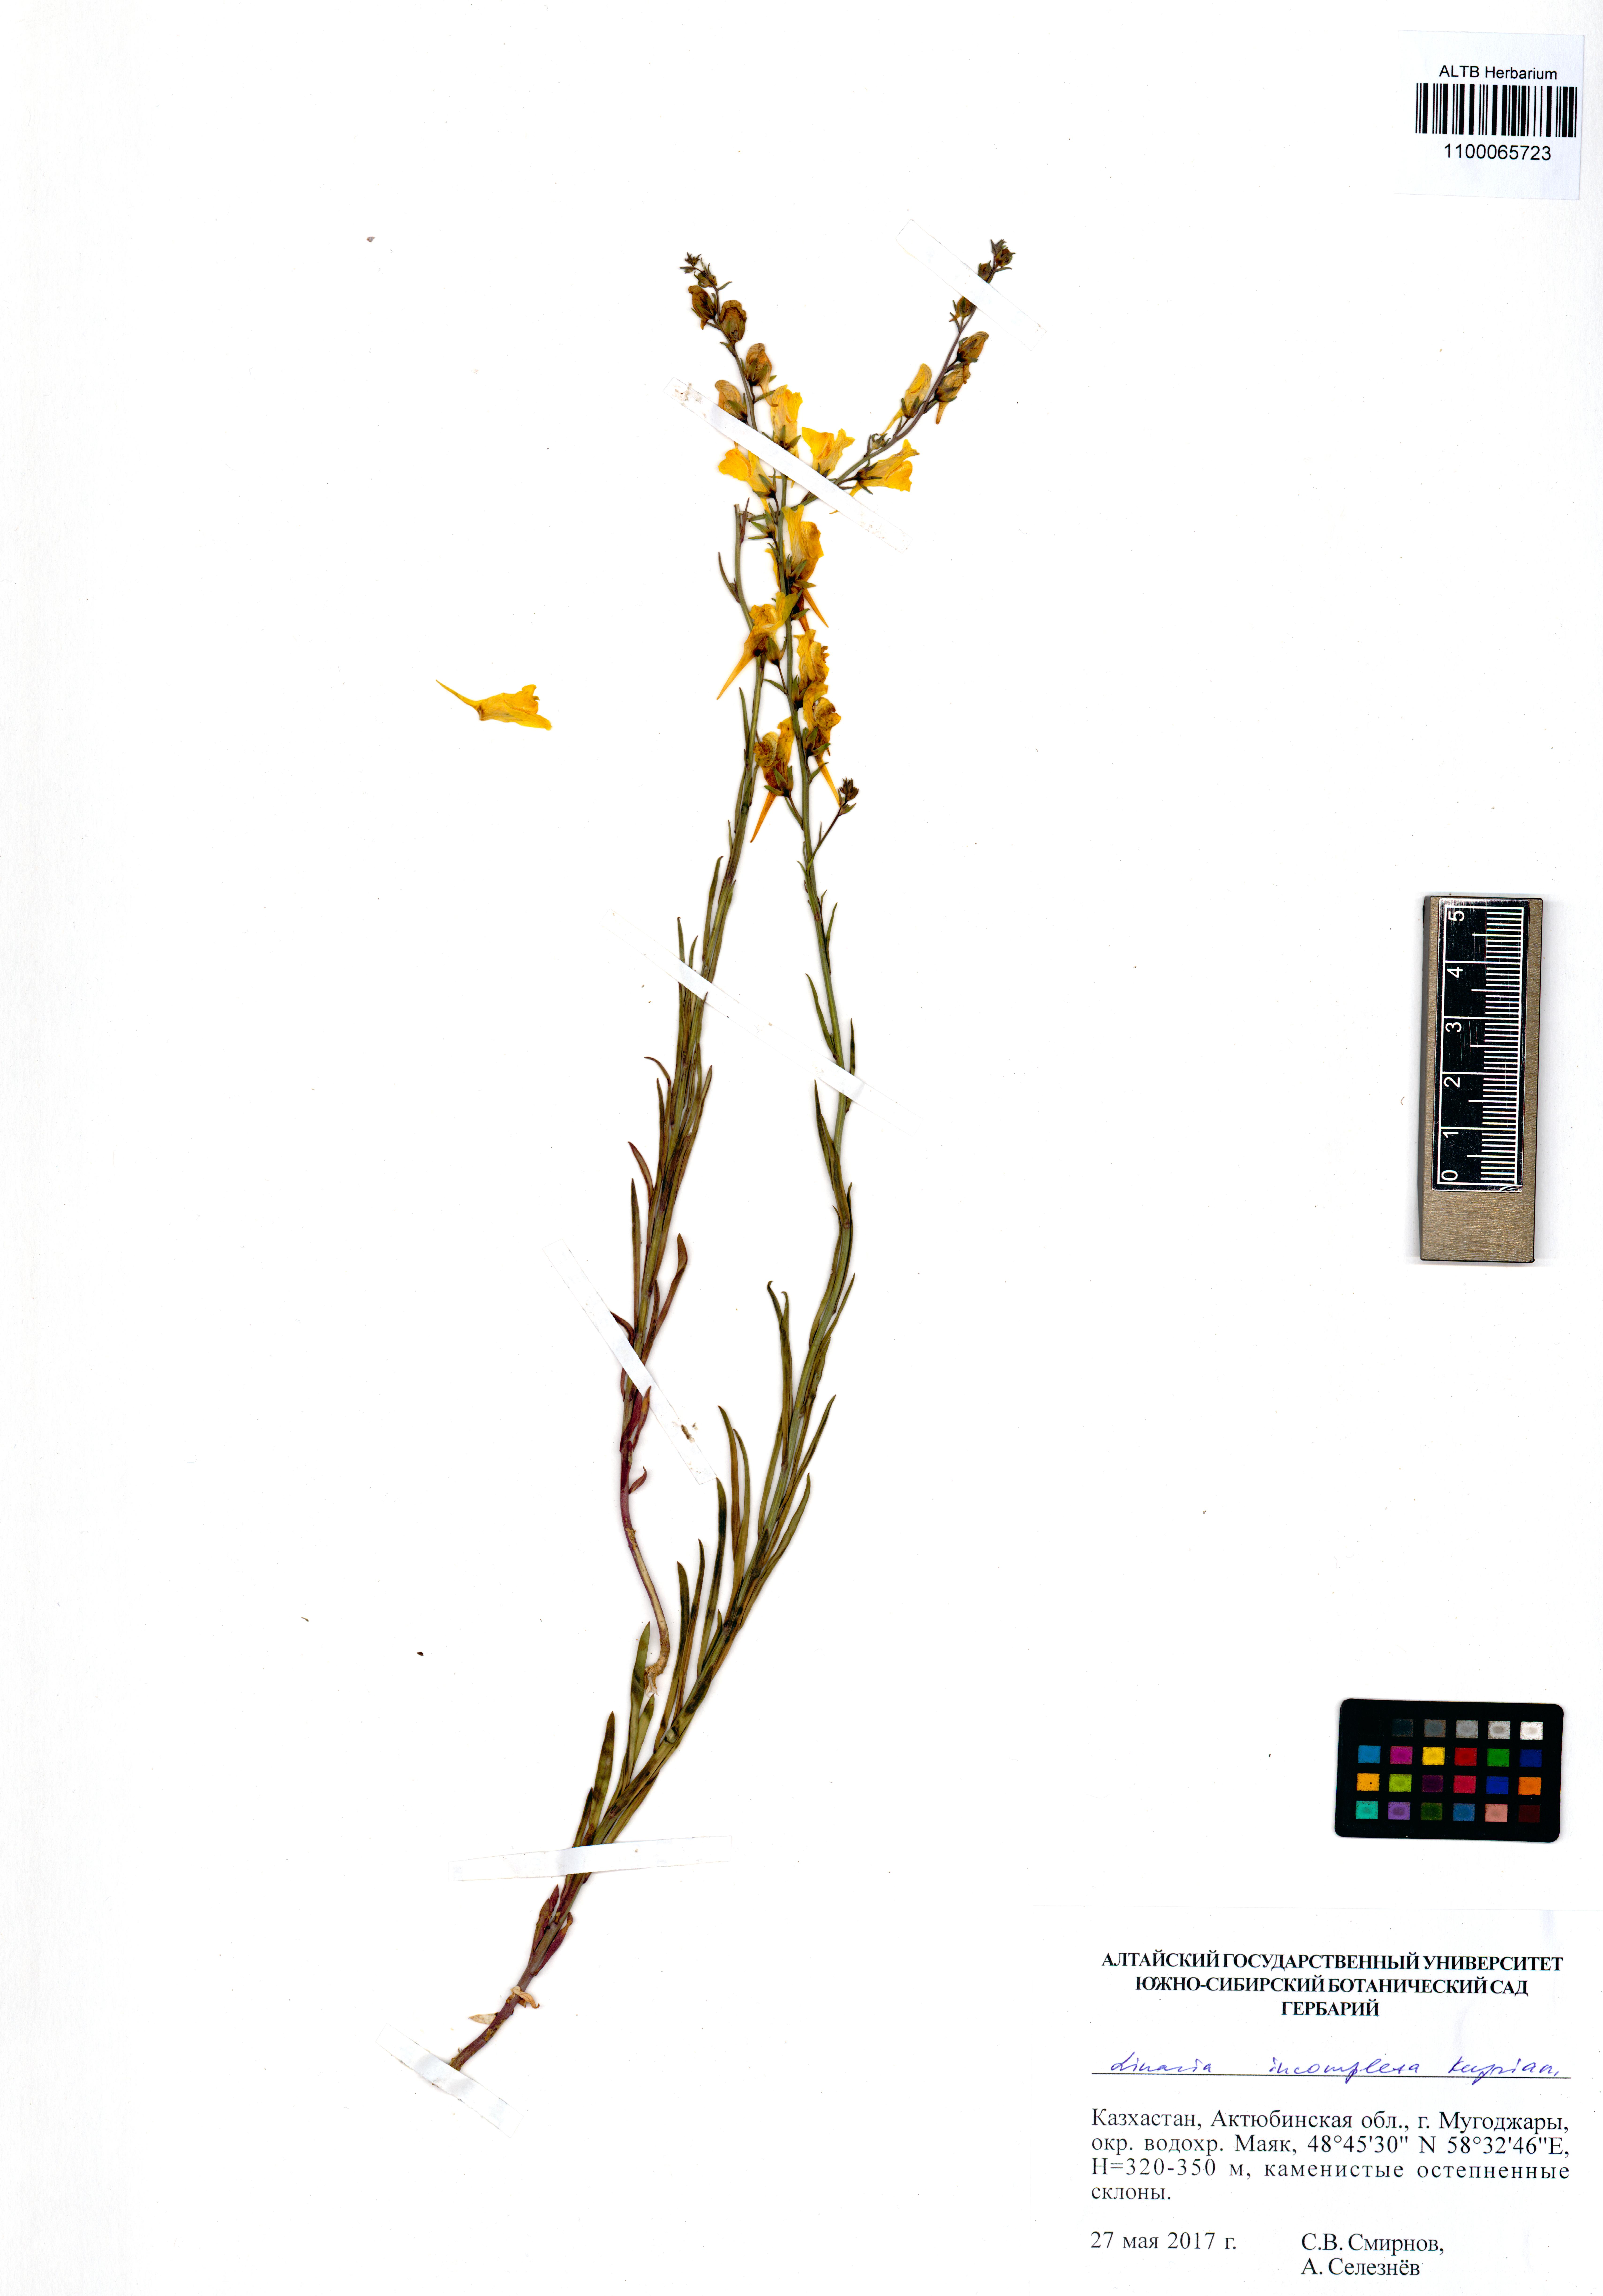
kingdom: Plantae
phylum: Tracheophyta
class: Magnoliopsida
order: Lamiales
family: Plantaginaceae
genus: Linaria
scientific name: Linaria incompleta
